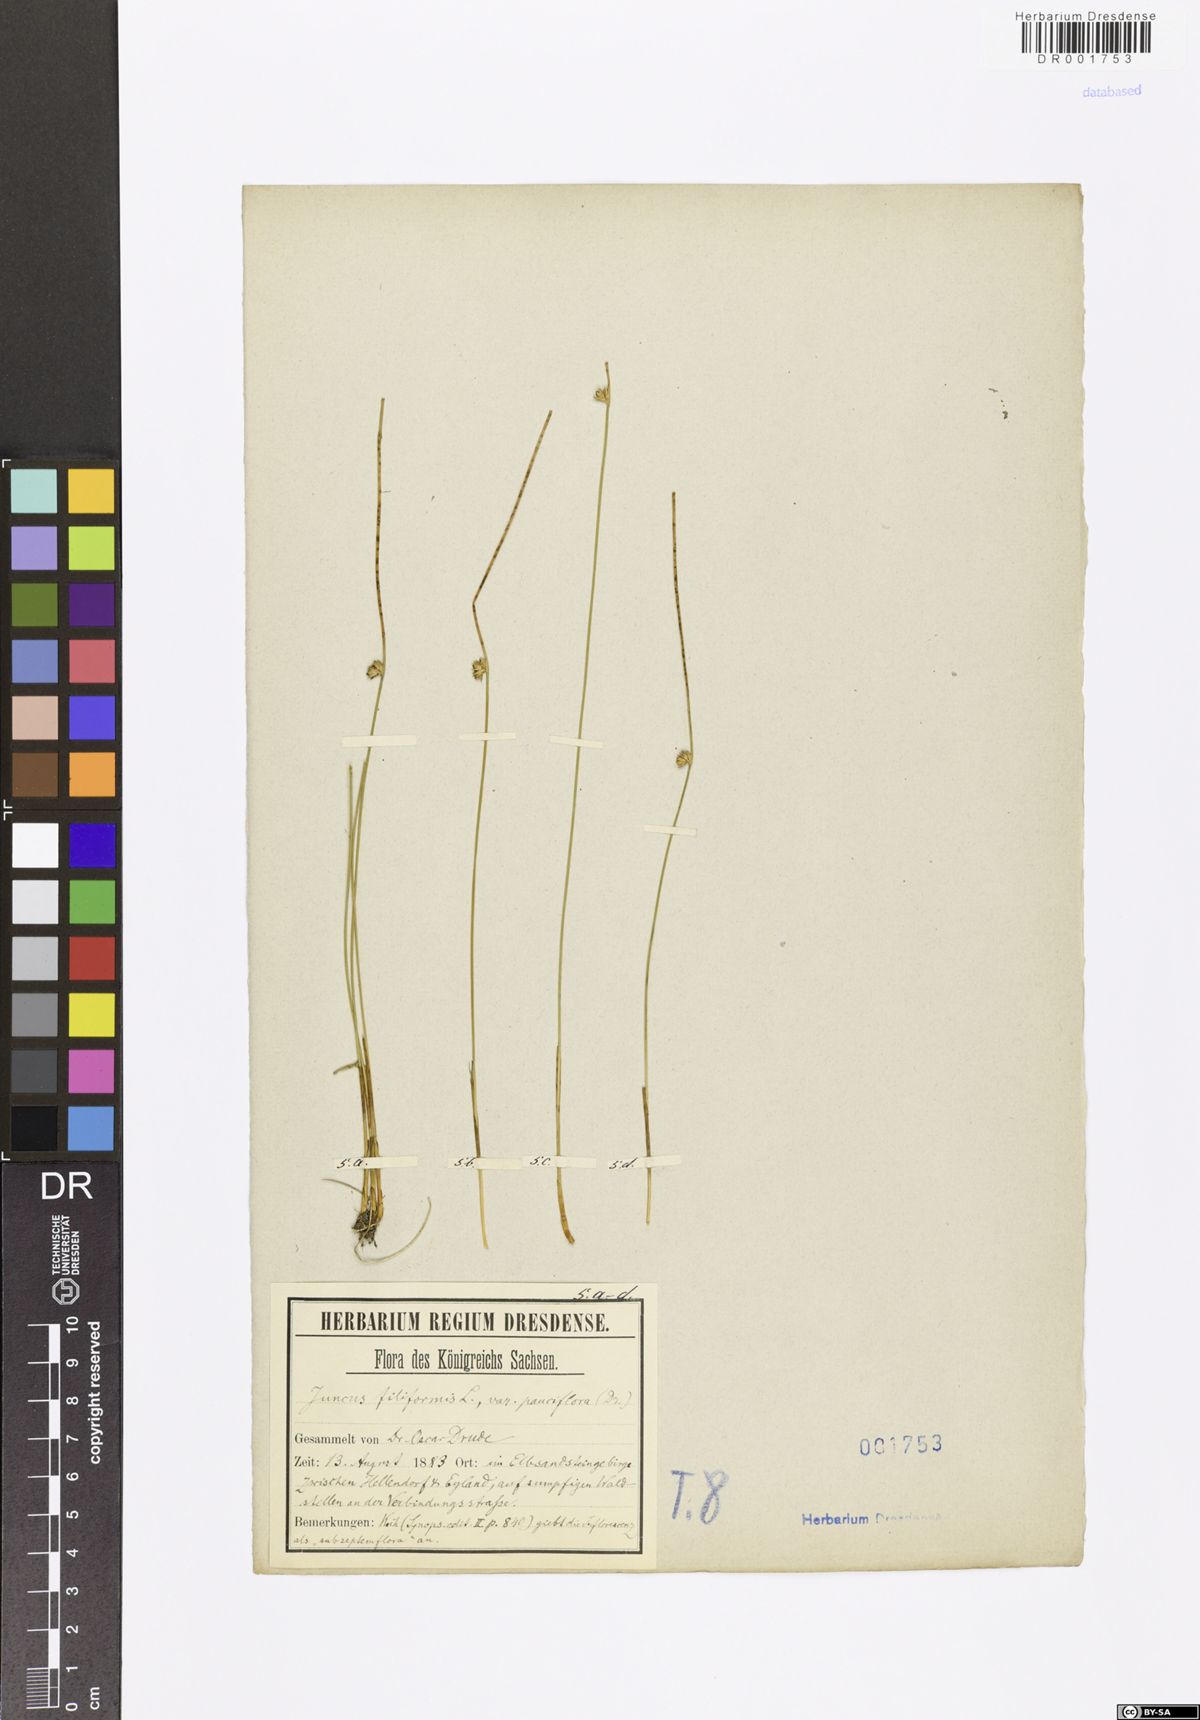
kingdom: Plantae
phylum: Tracheophyta
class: Liliopsida
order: Poales
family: Juncaceae
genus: Juncus
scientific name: Juncus inflexus
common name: Hard rush
